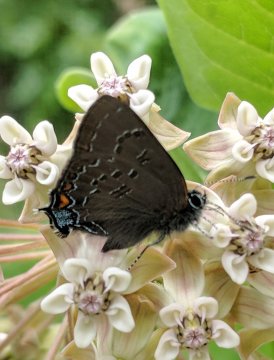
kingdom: Animalia
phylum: Arthropoda
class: Insecta
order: Lepidoptera
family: Lycaenidae
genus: Satyrium
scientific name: Satyrium calanus
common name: Banded Hairstreak
